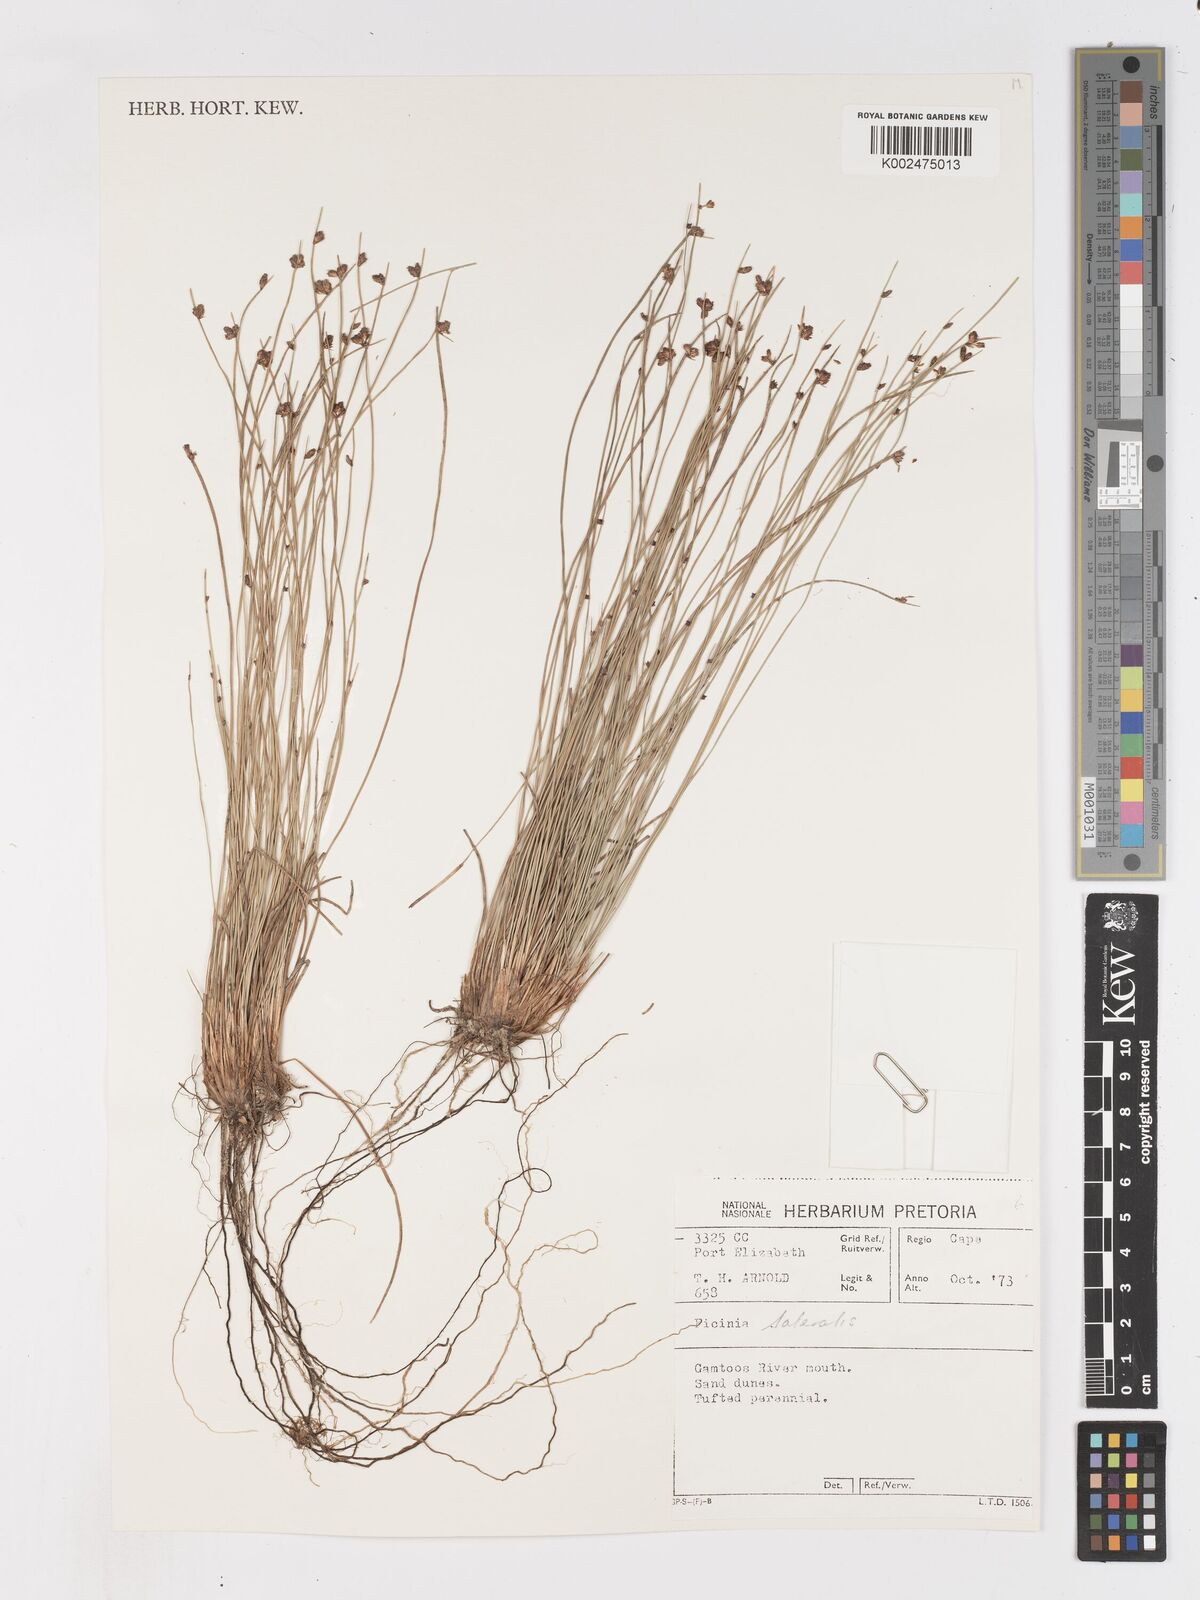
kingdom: Plantae
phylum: Tracheophyta
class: Liliopsida
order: Poales
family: Cyperaceae
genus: Ficinia
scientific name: Ficinia lateralis
